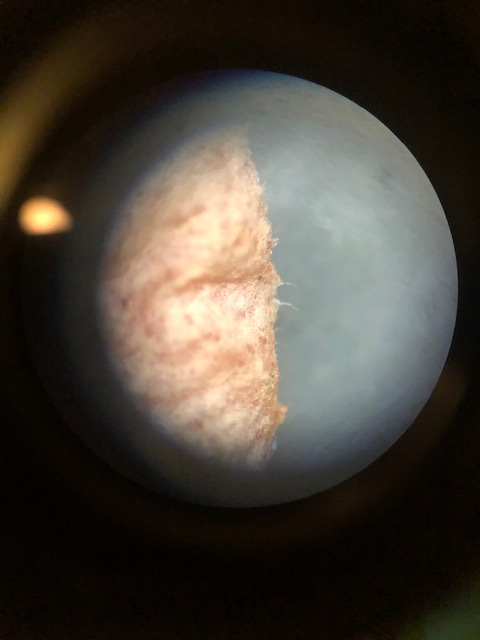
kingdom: Fungi
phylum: Ascomycota
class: Pezizomycetes
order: Pezizales
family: Sarcoscyphaceae
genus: Sarcoscypha
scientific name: Sarcoscypha
